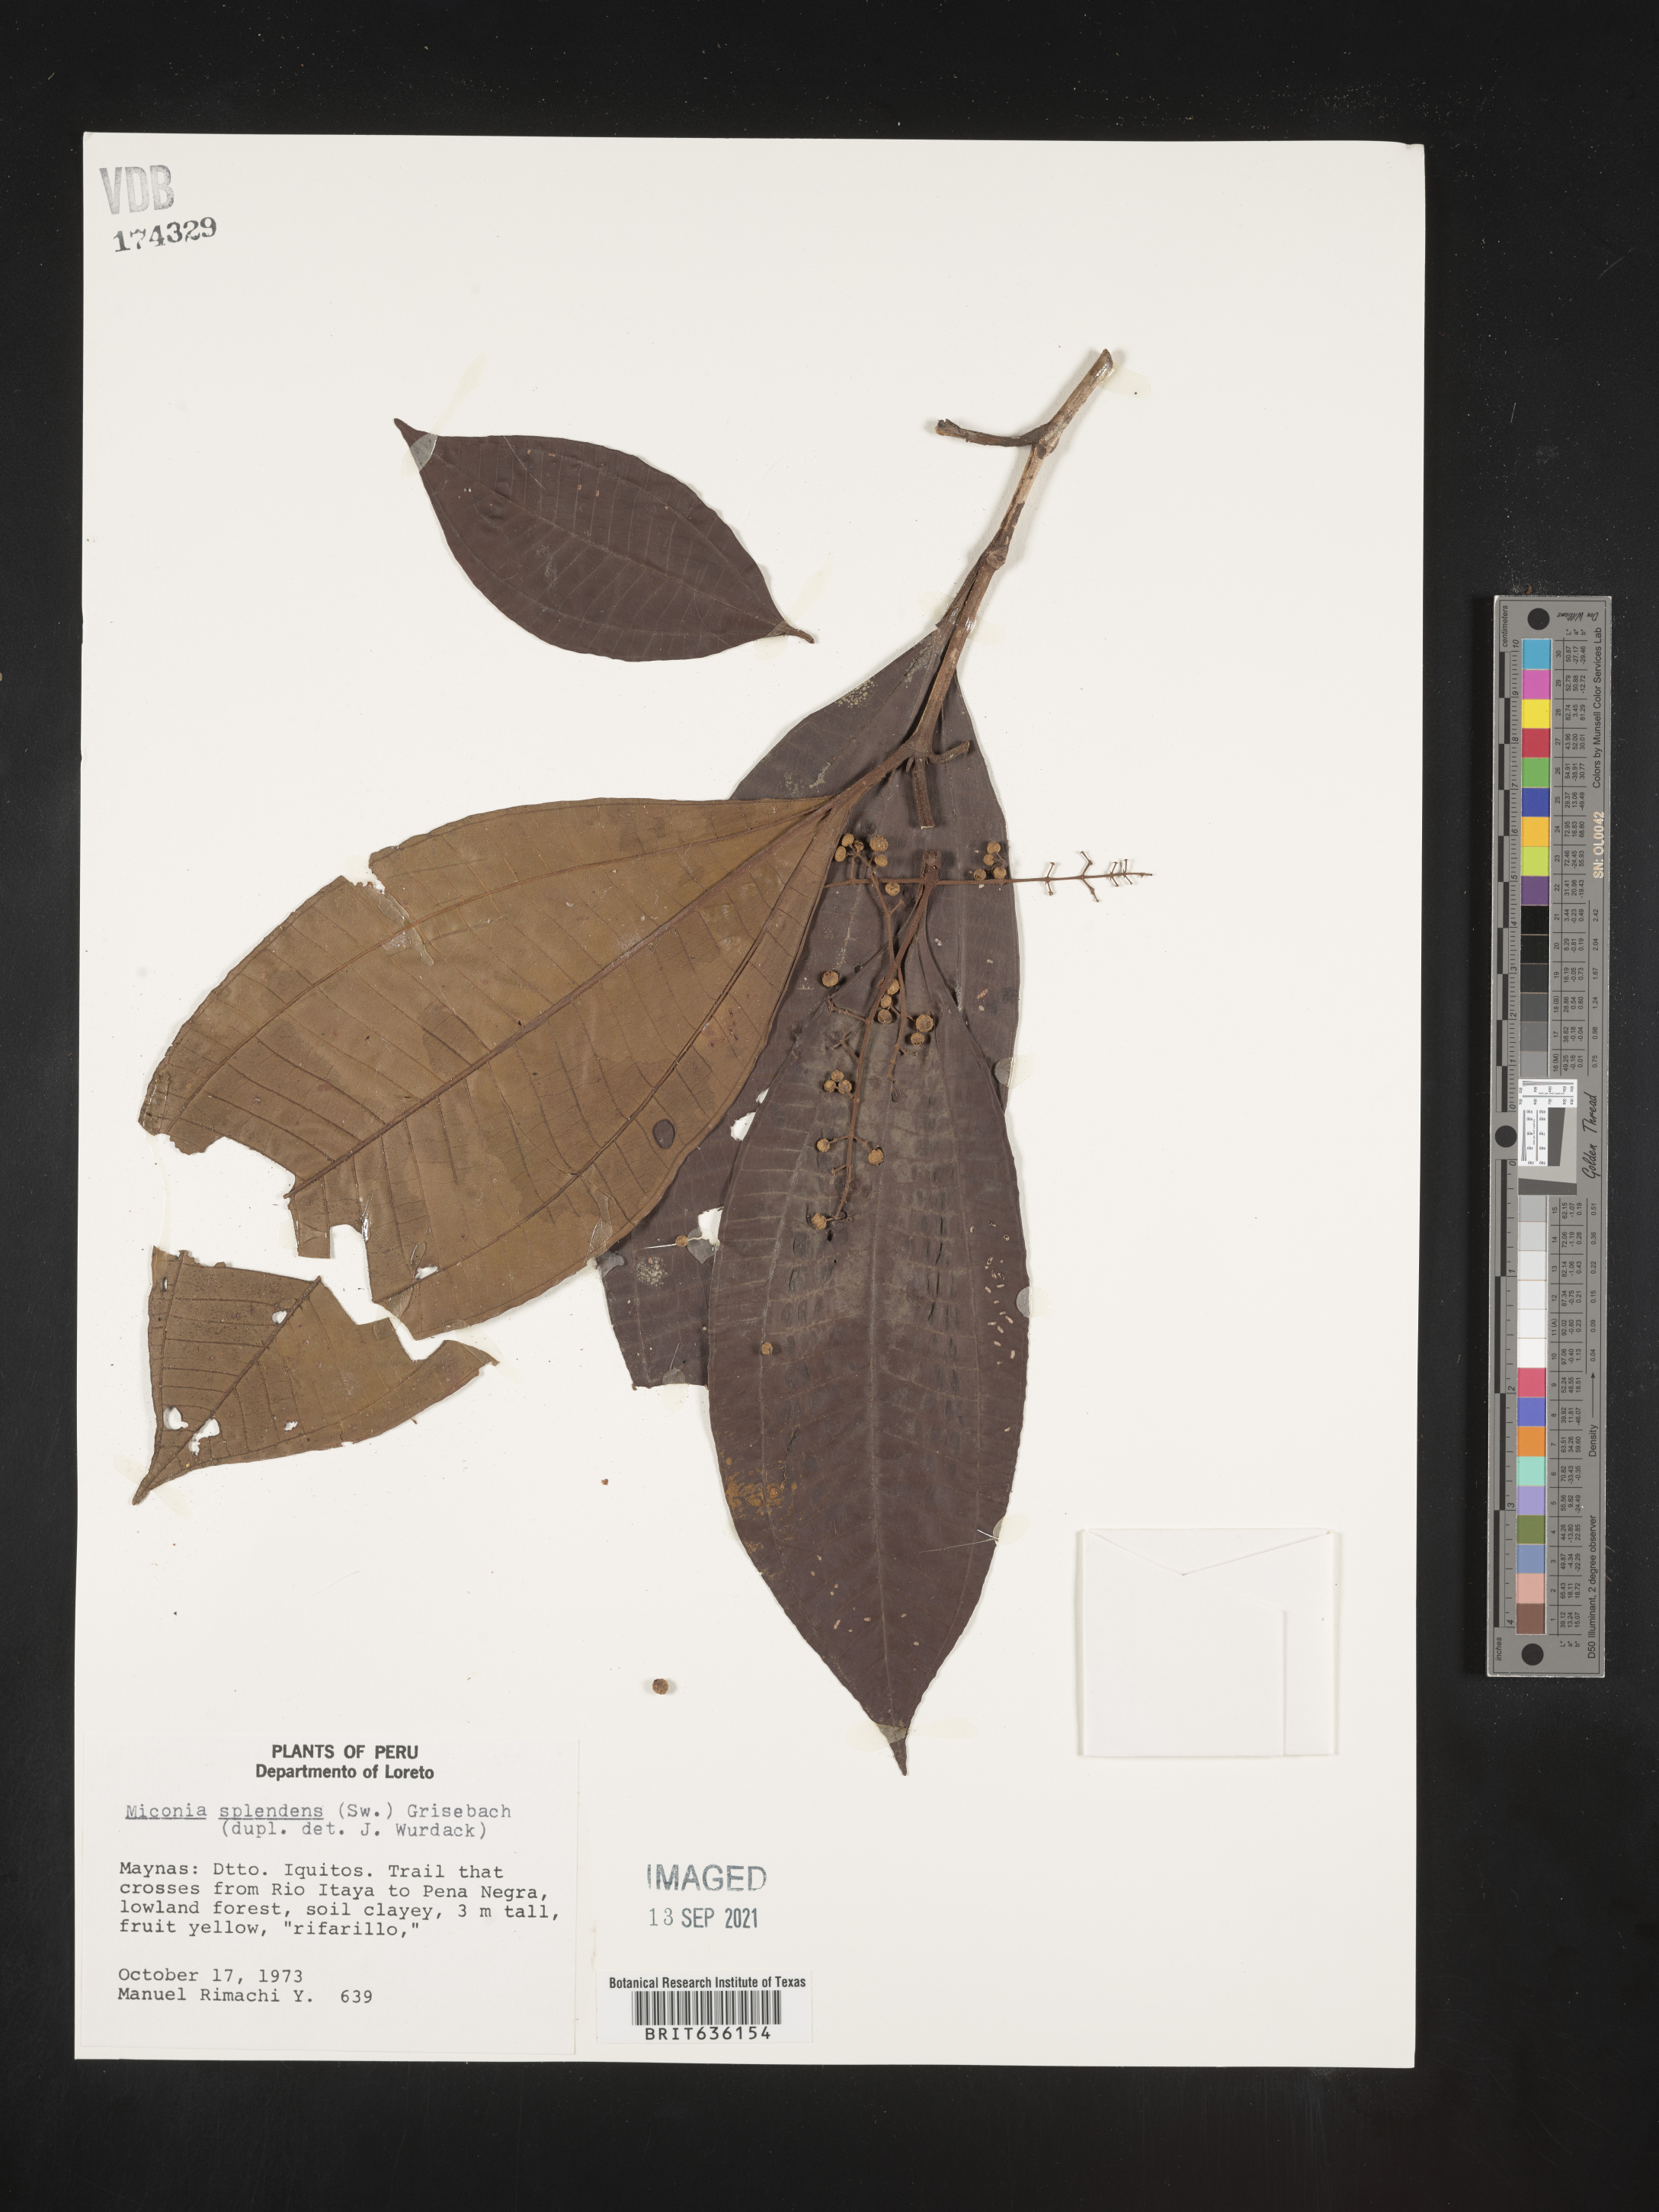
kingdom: Plantae
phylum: Tracheophyta
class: Magnoliopsida
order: Myrtales
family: Melastomataceae
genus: Miconia
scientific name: Miconia
